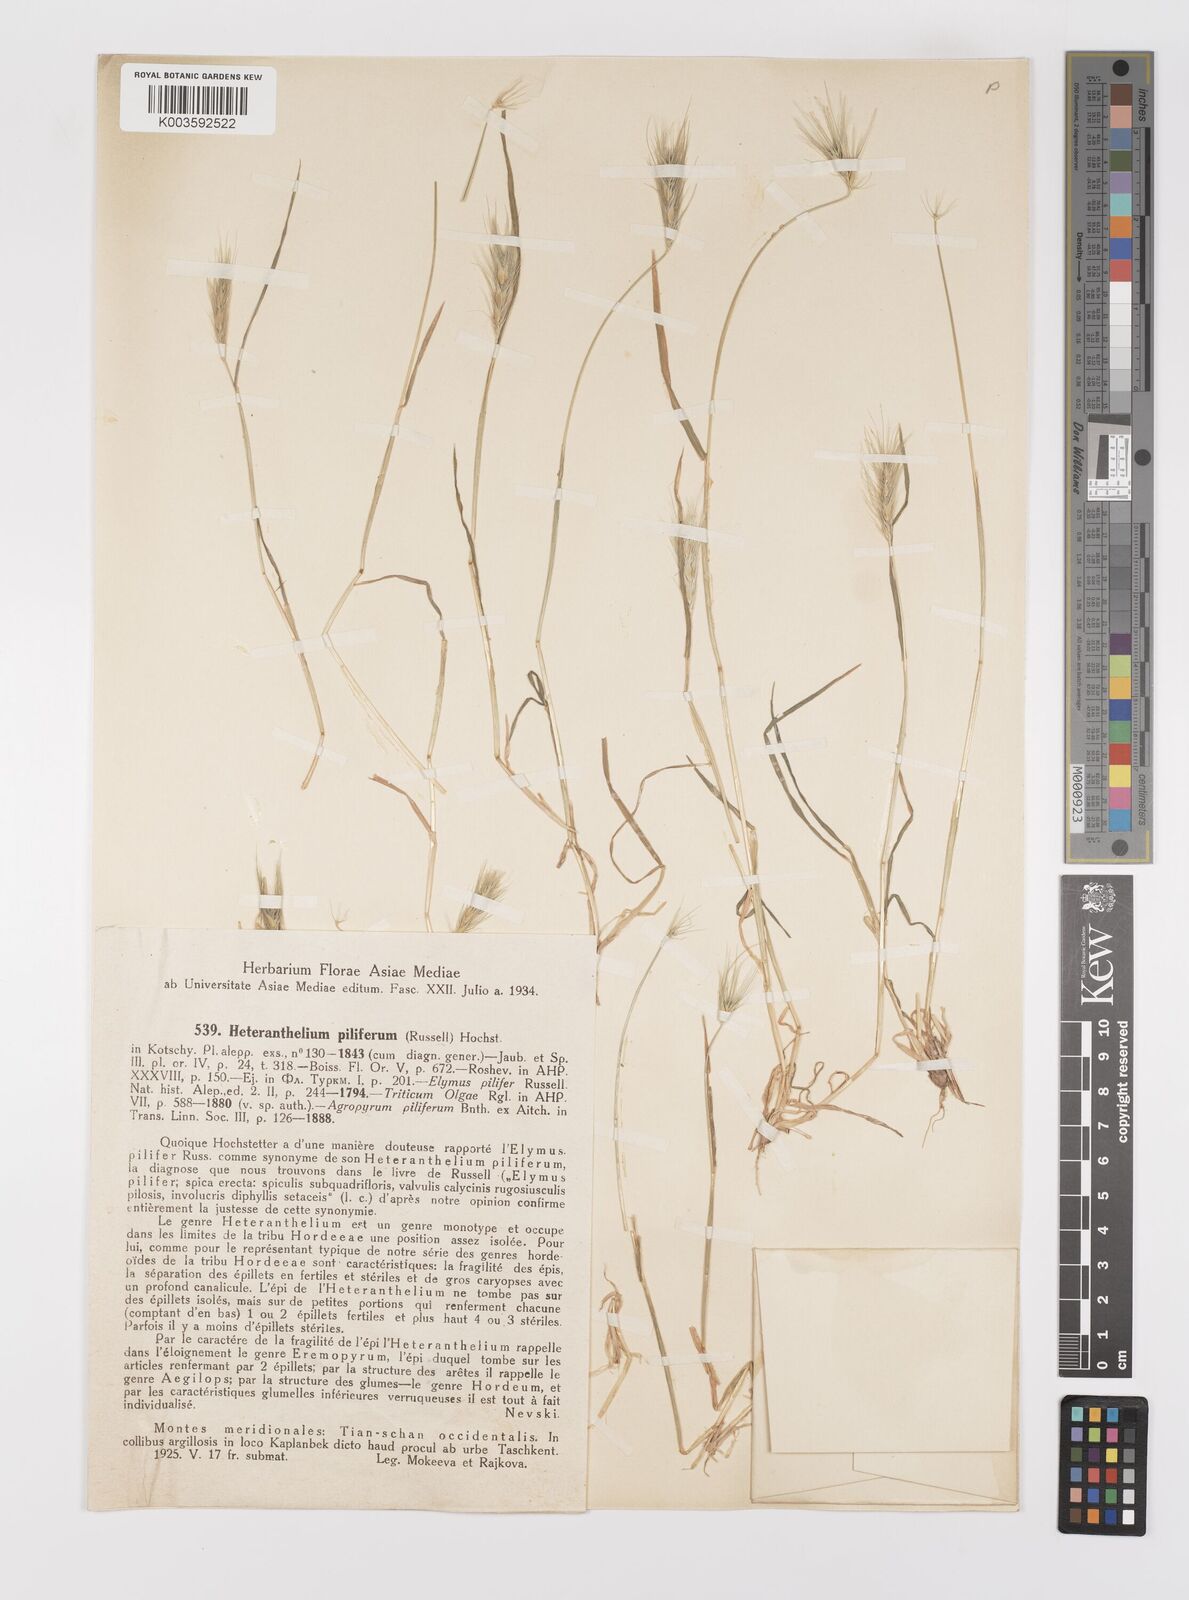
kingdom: Plantae
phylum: Tracheophyta
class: Liliopsida
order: Poales
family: Poaceae
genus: Heteranthelium
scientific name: Heteranthelium piliferum
